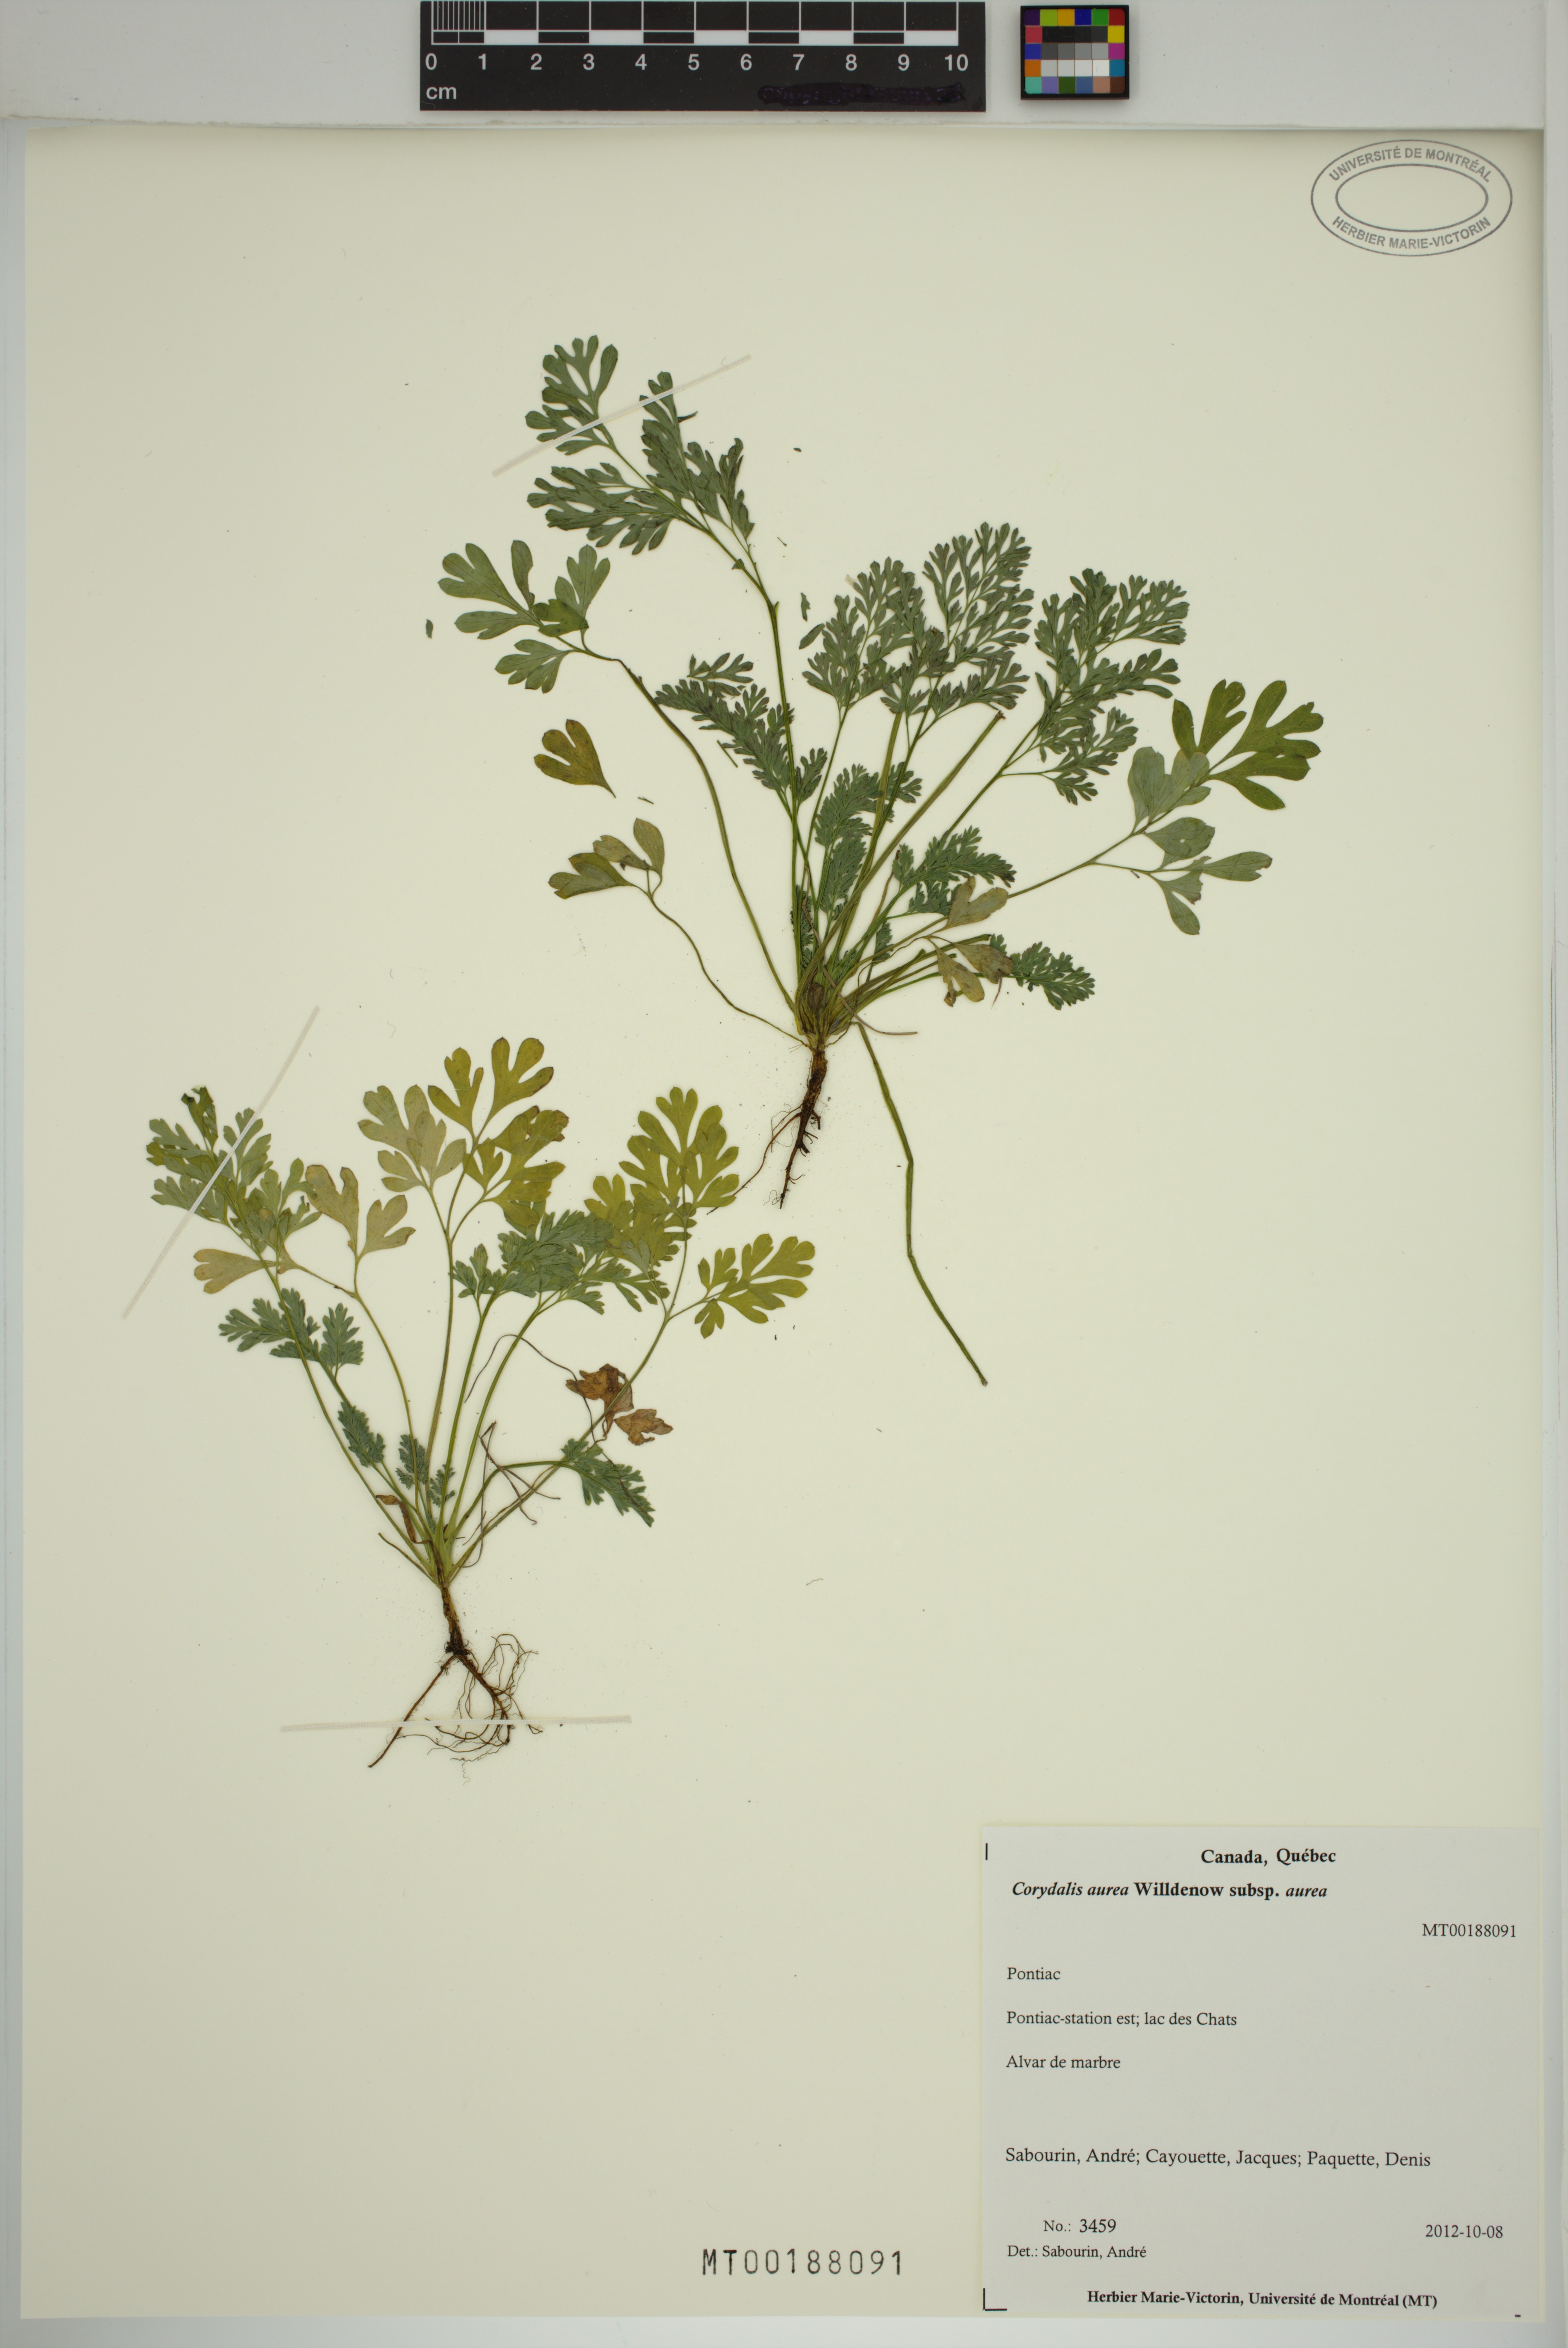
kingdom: Plantae
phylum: Tracheophyta
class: Magnoliopsida
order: Ranunculales
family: Papaveraceae
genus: Corydalis
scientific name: Corydalis aurea
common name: Golden corydalis
